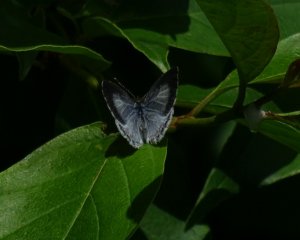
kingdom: Animalia
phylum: Arthropoda
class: Insecta
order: Lepidoptera
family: Lycaenidae
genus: Celastrina
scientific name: Celastrina serotina
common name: Cherry Gall Azure
